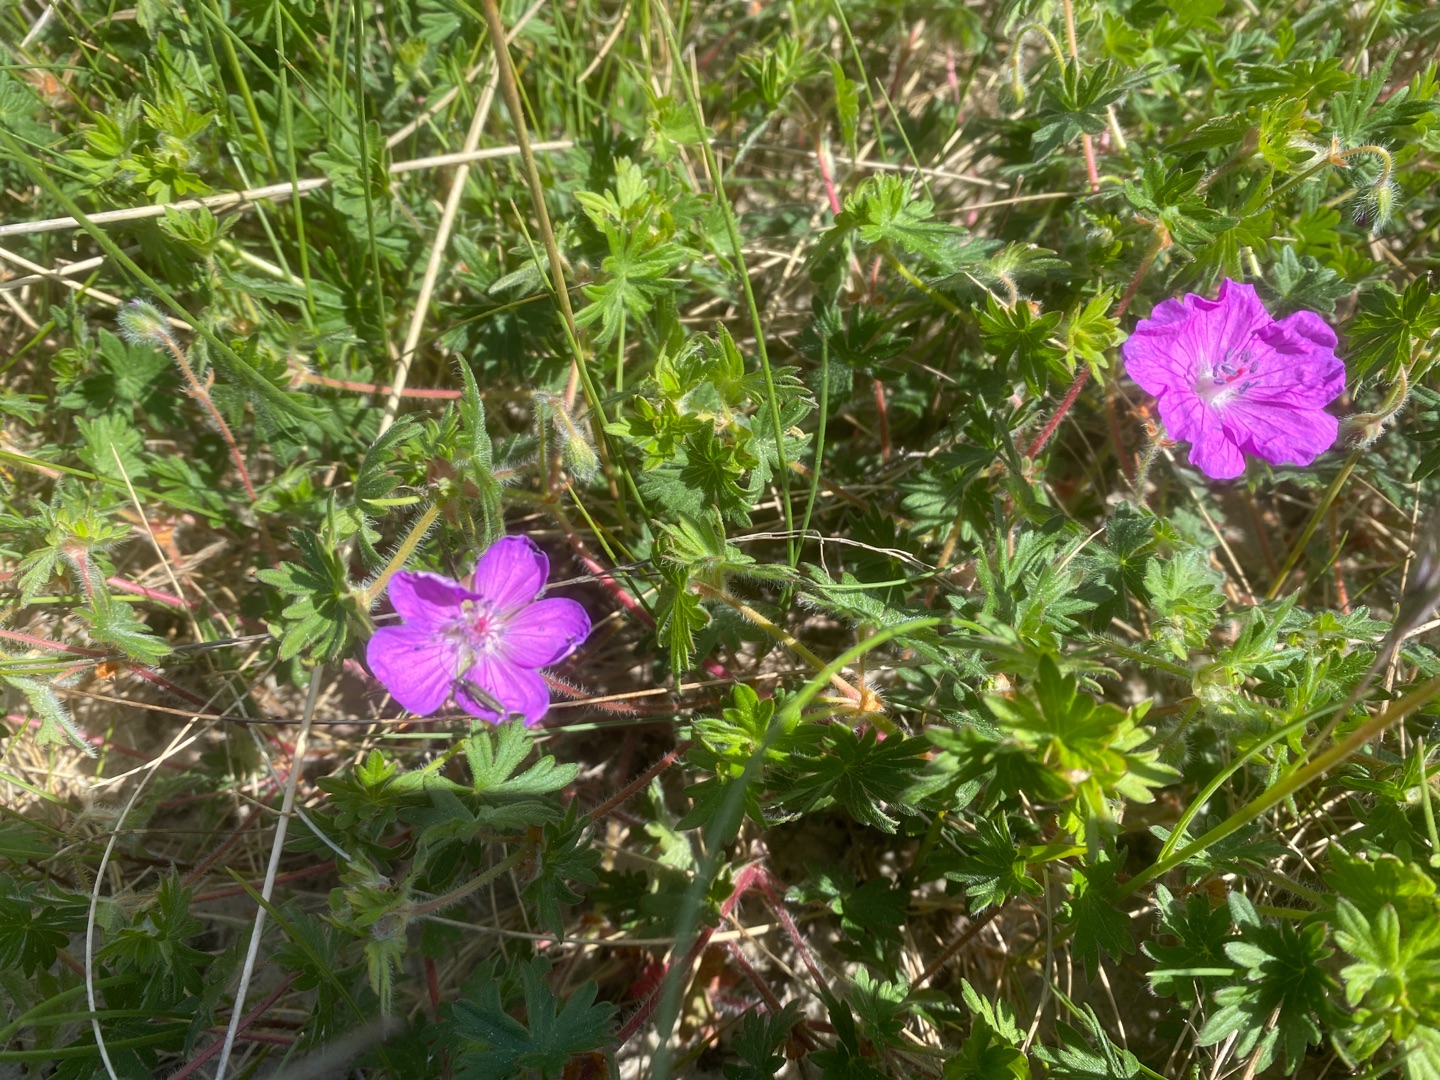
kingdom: Plantae
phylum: Tracheophyta
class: Magnoliopsida
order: Geraniales
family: Geraniaceae
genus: Geranium
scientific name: Geranium sanguineum
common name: Blodrød storkenæb
